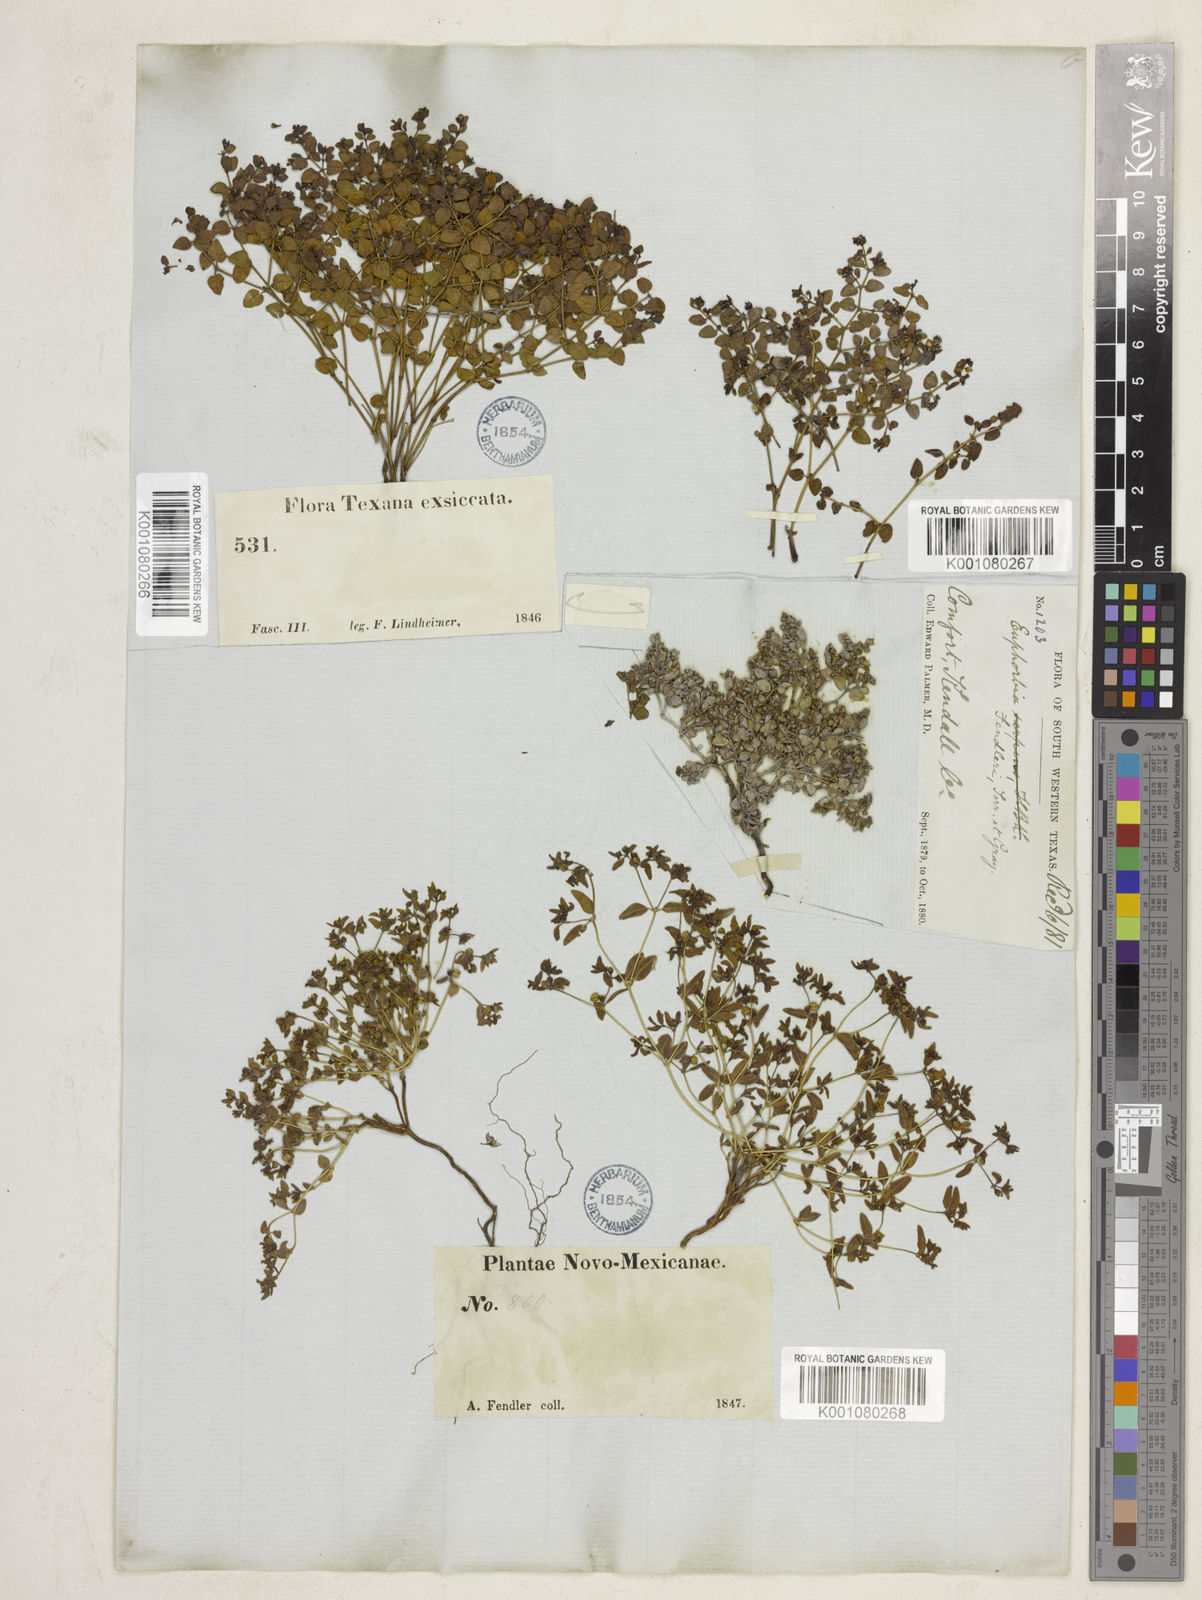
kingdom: Plantae
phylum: Tracheophyta
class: Magnoliopsida
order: Malpighiales
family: Euphorbiaceae
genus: Euphorbia
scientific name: Euphorbia fendleri
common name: Fendler's euphorbia
